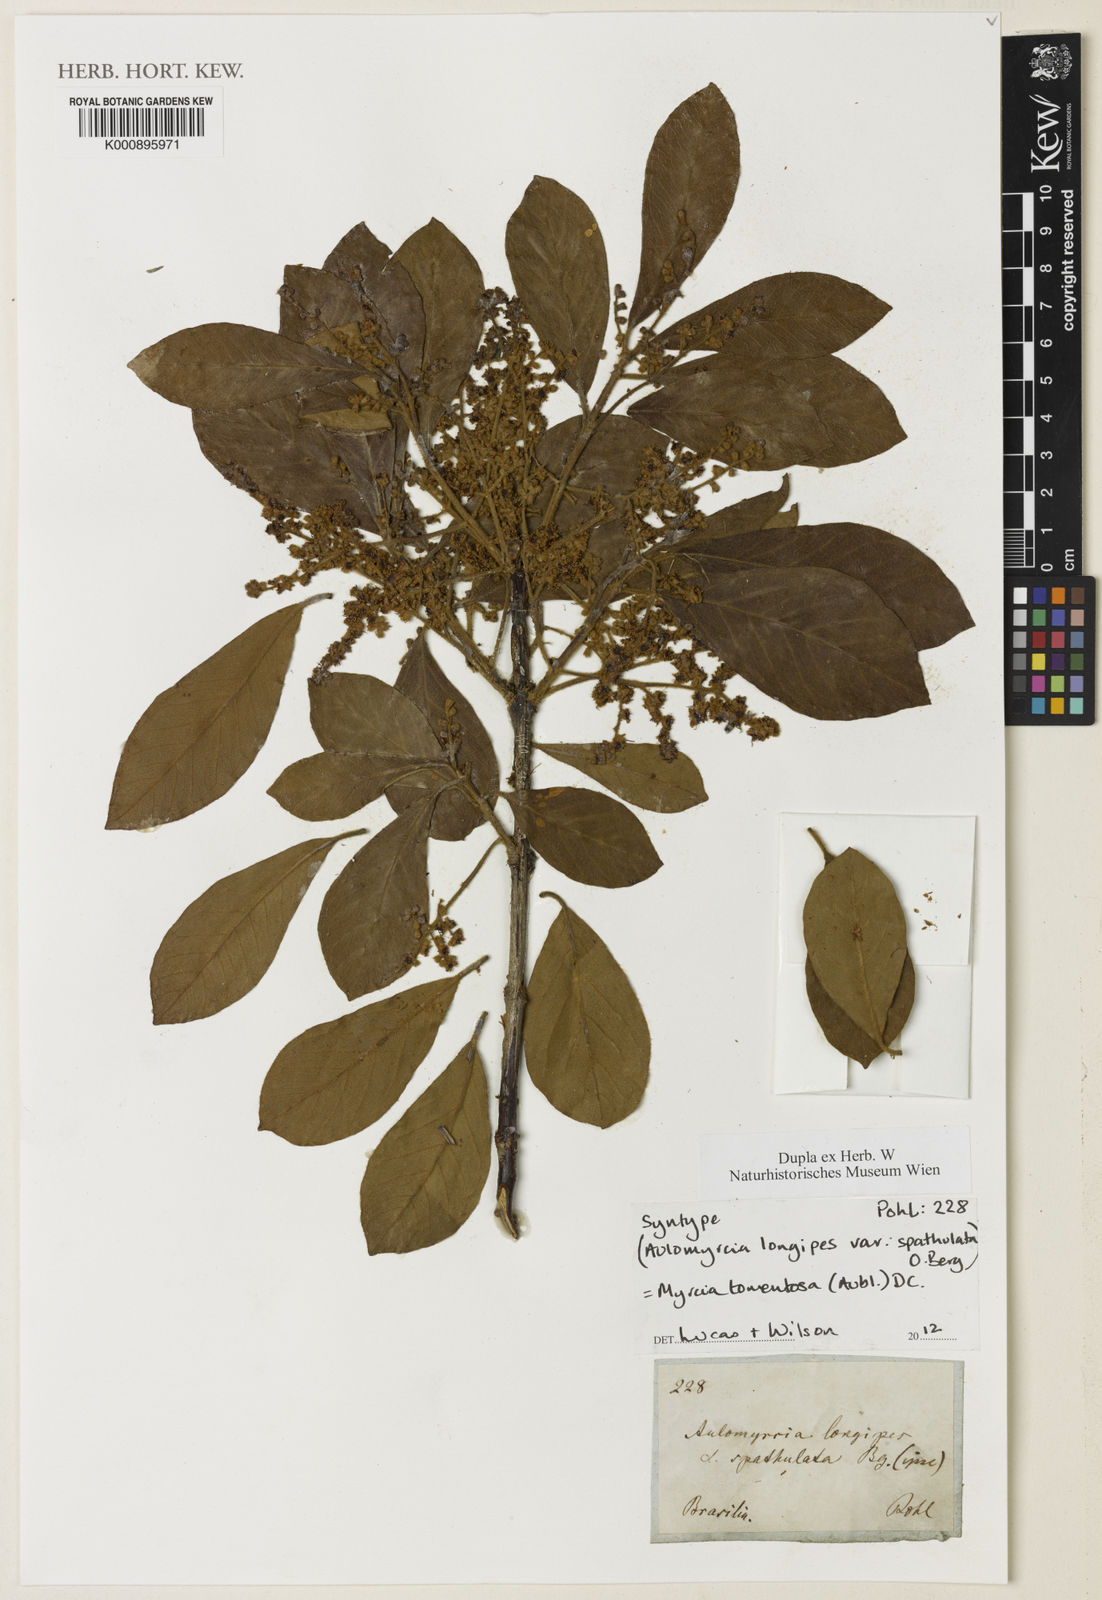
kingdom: Plantae
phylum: Tracheophyta
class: Magnoliopsida
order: Myrtales
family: Myrtaceae
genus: Myrcia
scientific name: Myrcia tomentosa
